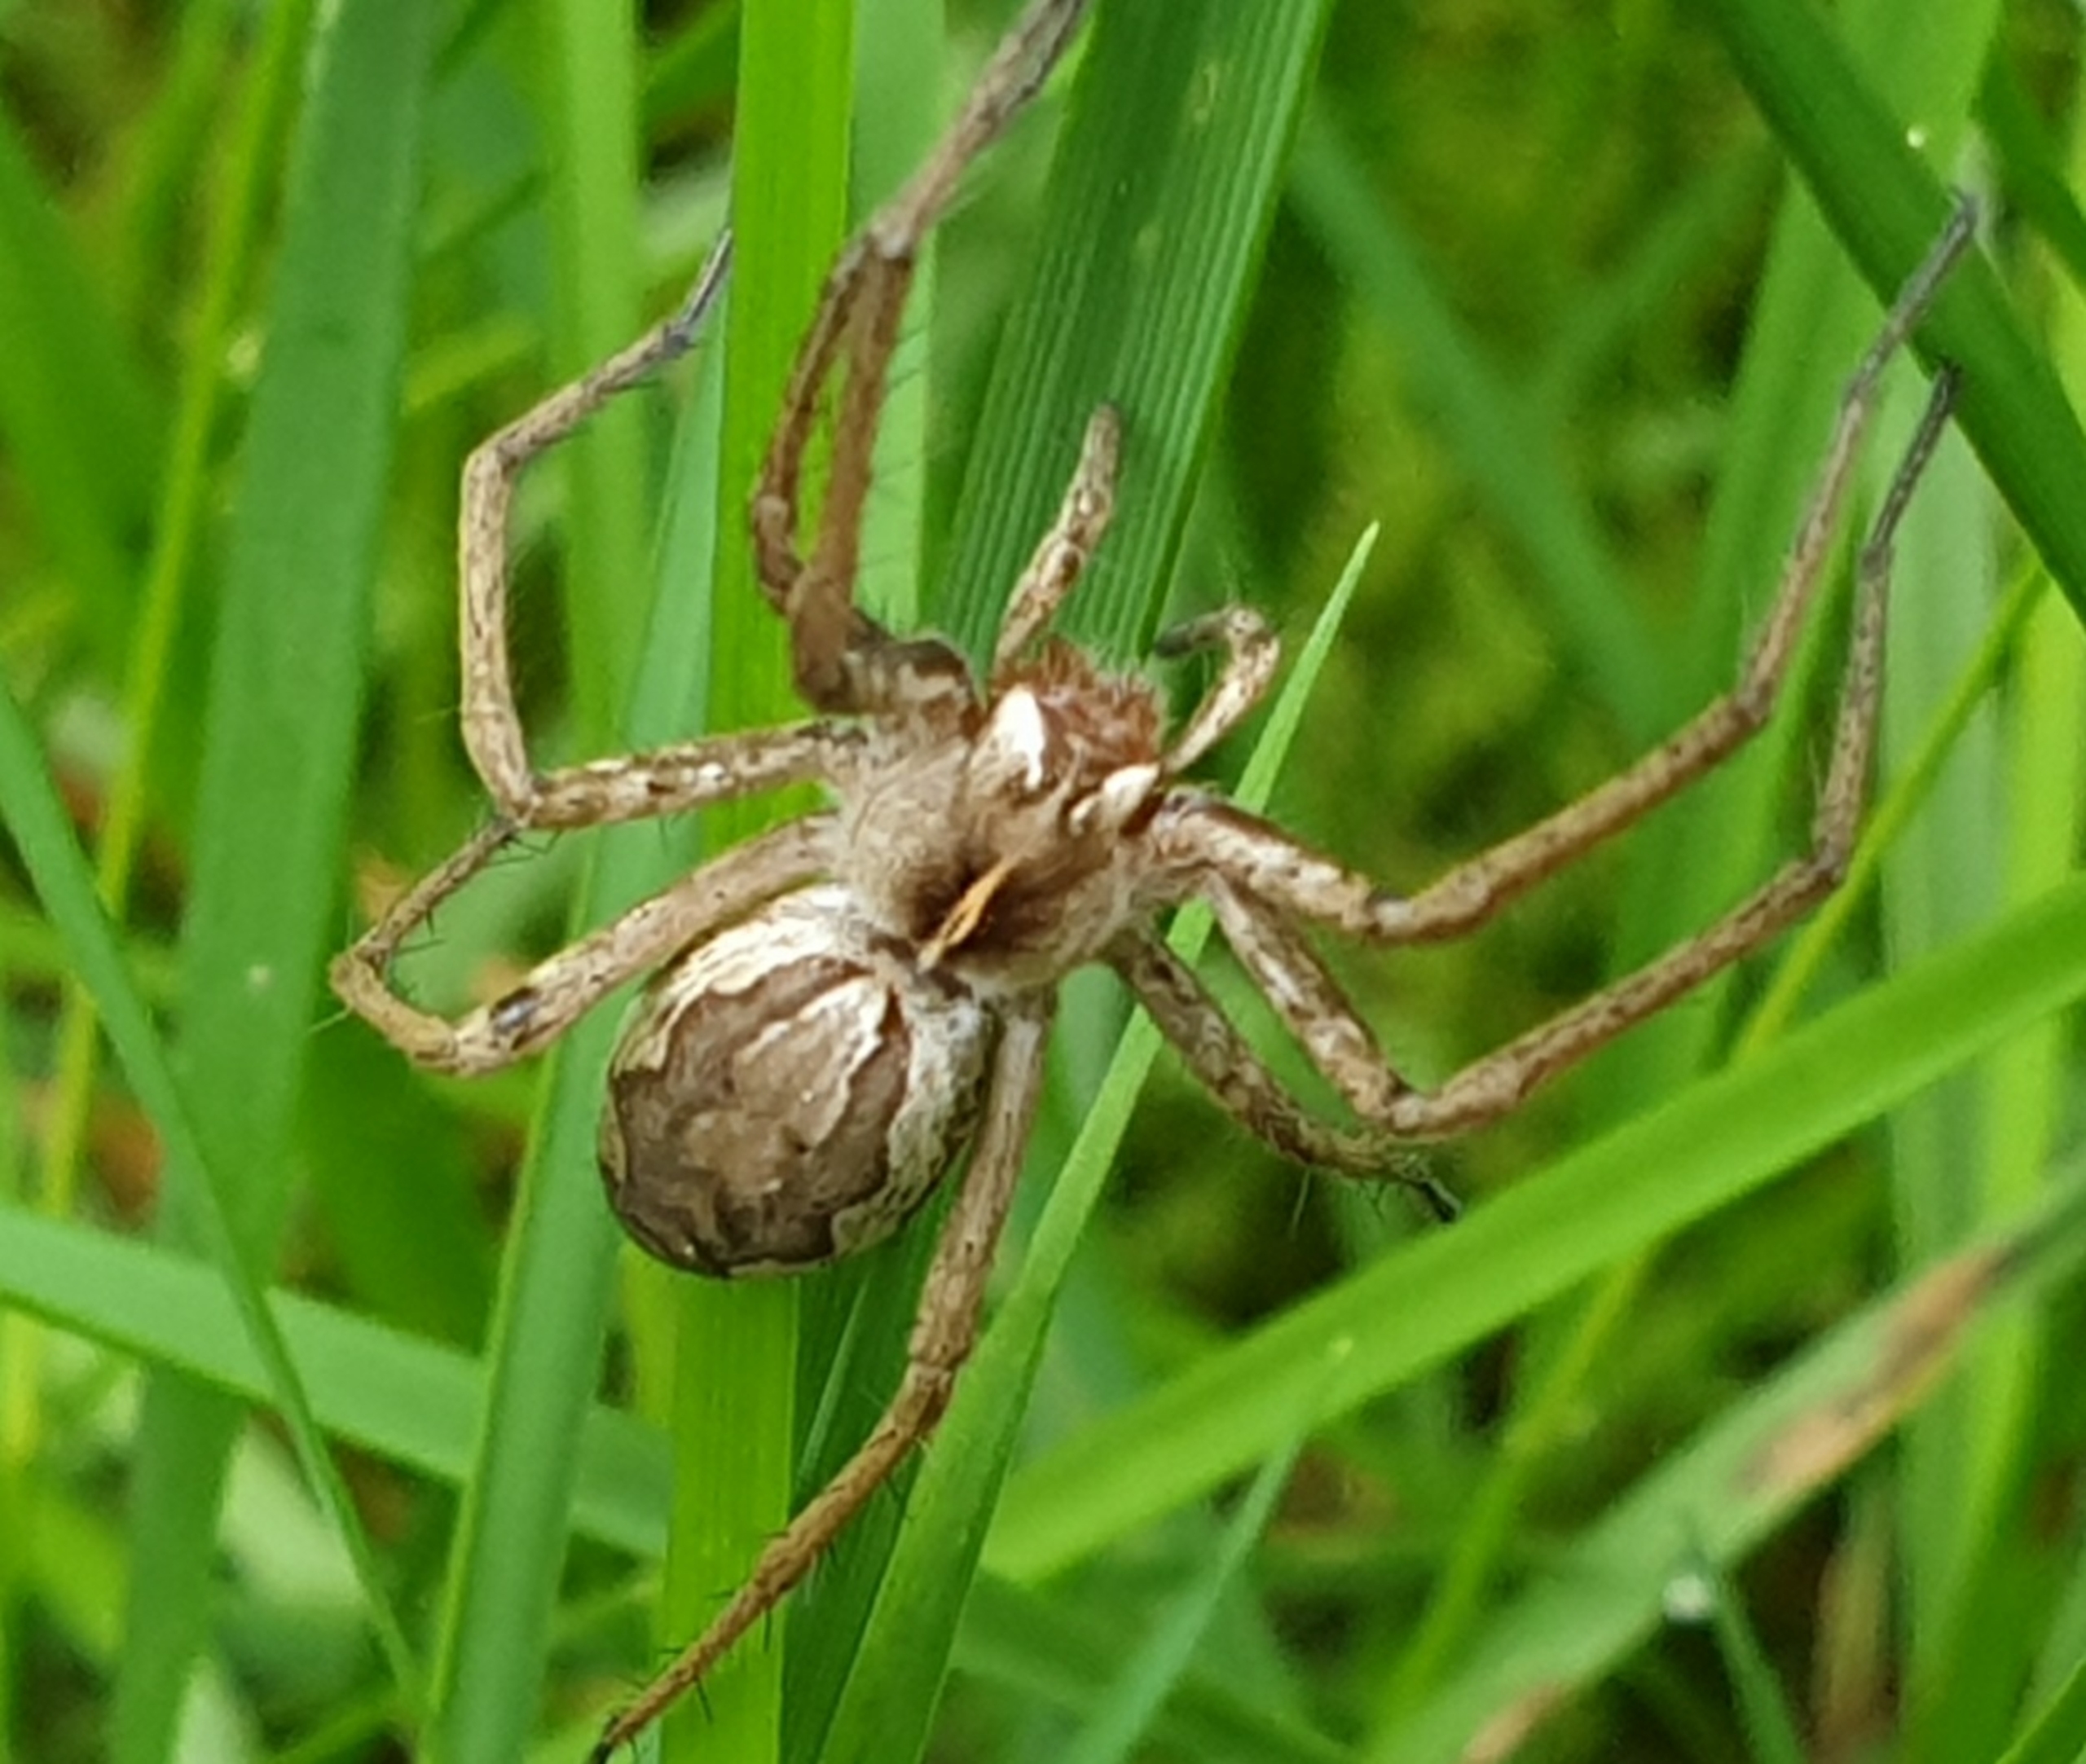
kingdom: Animalia
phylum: Arthropoda
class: Arachnida
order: Araneae
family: Pisauridae
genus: Pisaura
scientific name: Pisaura mirabilis
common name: Almindelig rovedderkop
